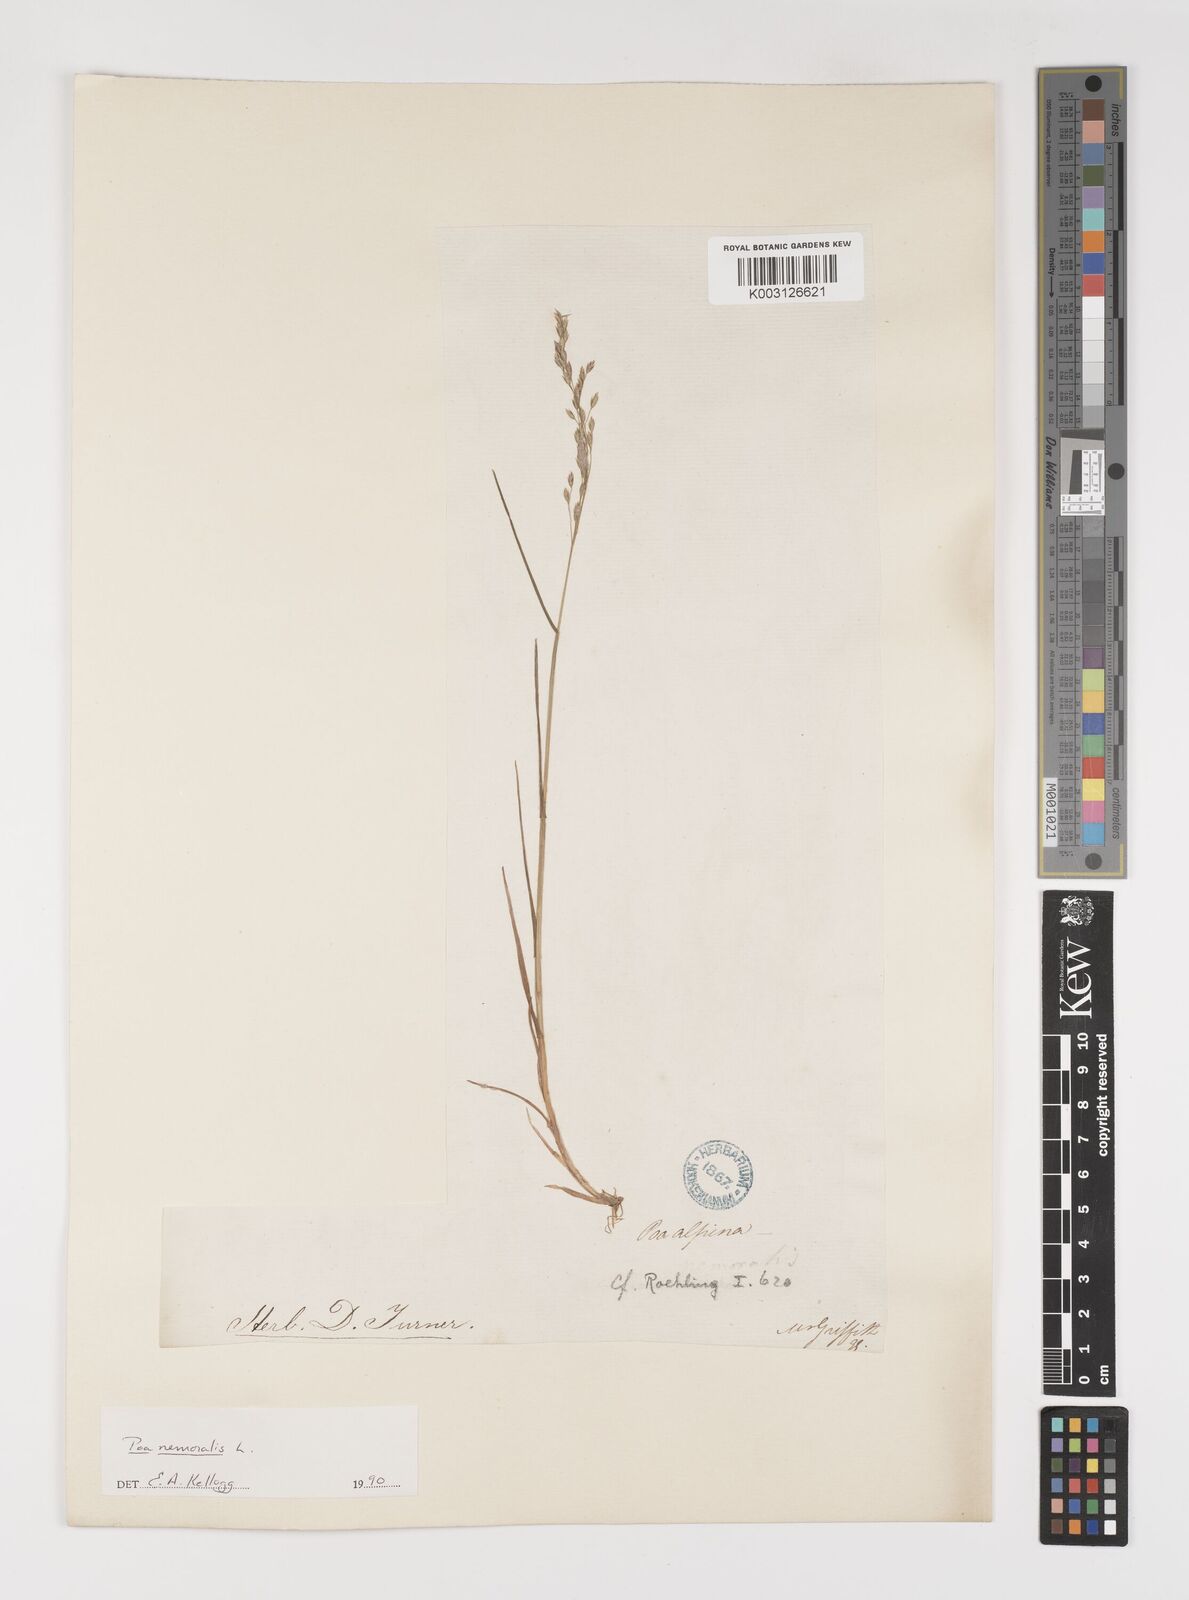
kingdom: Plantae
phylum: Tracheophyta
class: Liliopsida
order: Poales
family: Poaceae
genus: Poa
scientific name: Poa nemoralis
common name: Wood bluegrass
